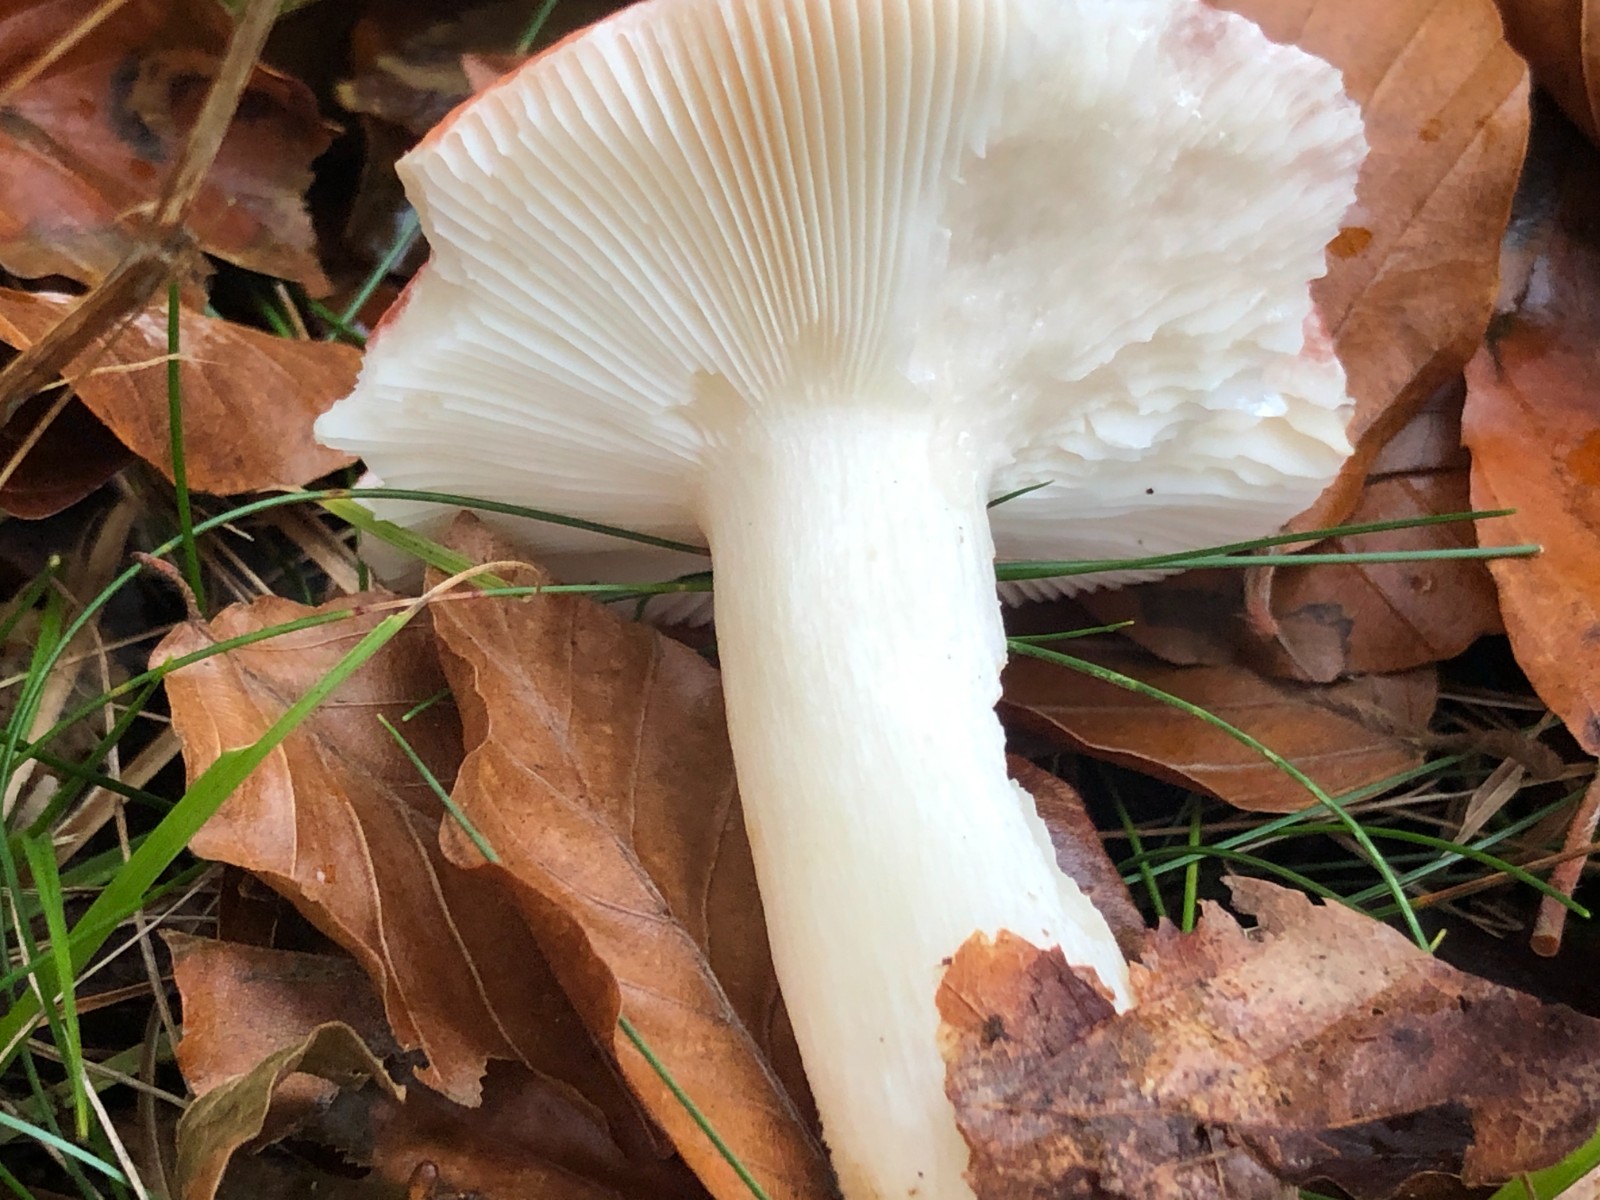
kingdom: Fungi
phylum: Basidiomycota
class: Agaricomycetes
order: Russulales
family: Russulaceae
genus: Russula
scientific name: Russula silvestris
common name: mellemstor gift-skørhat
